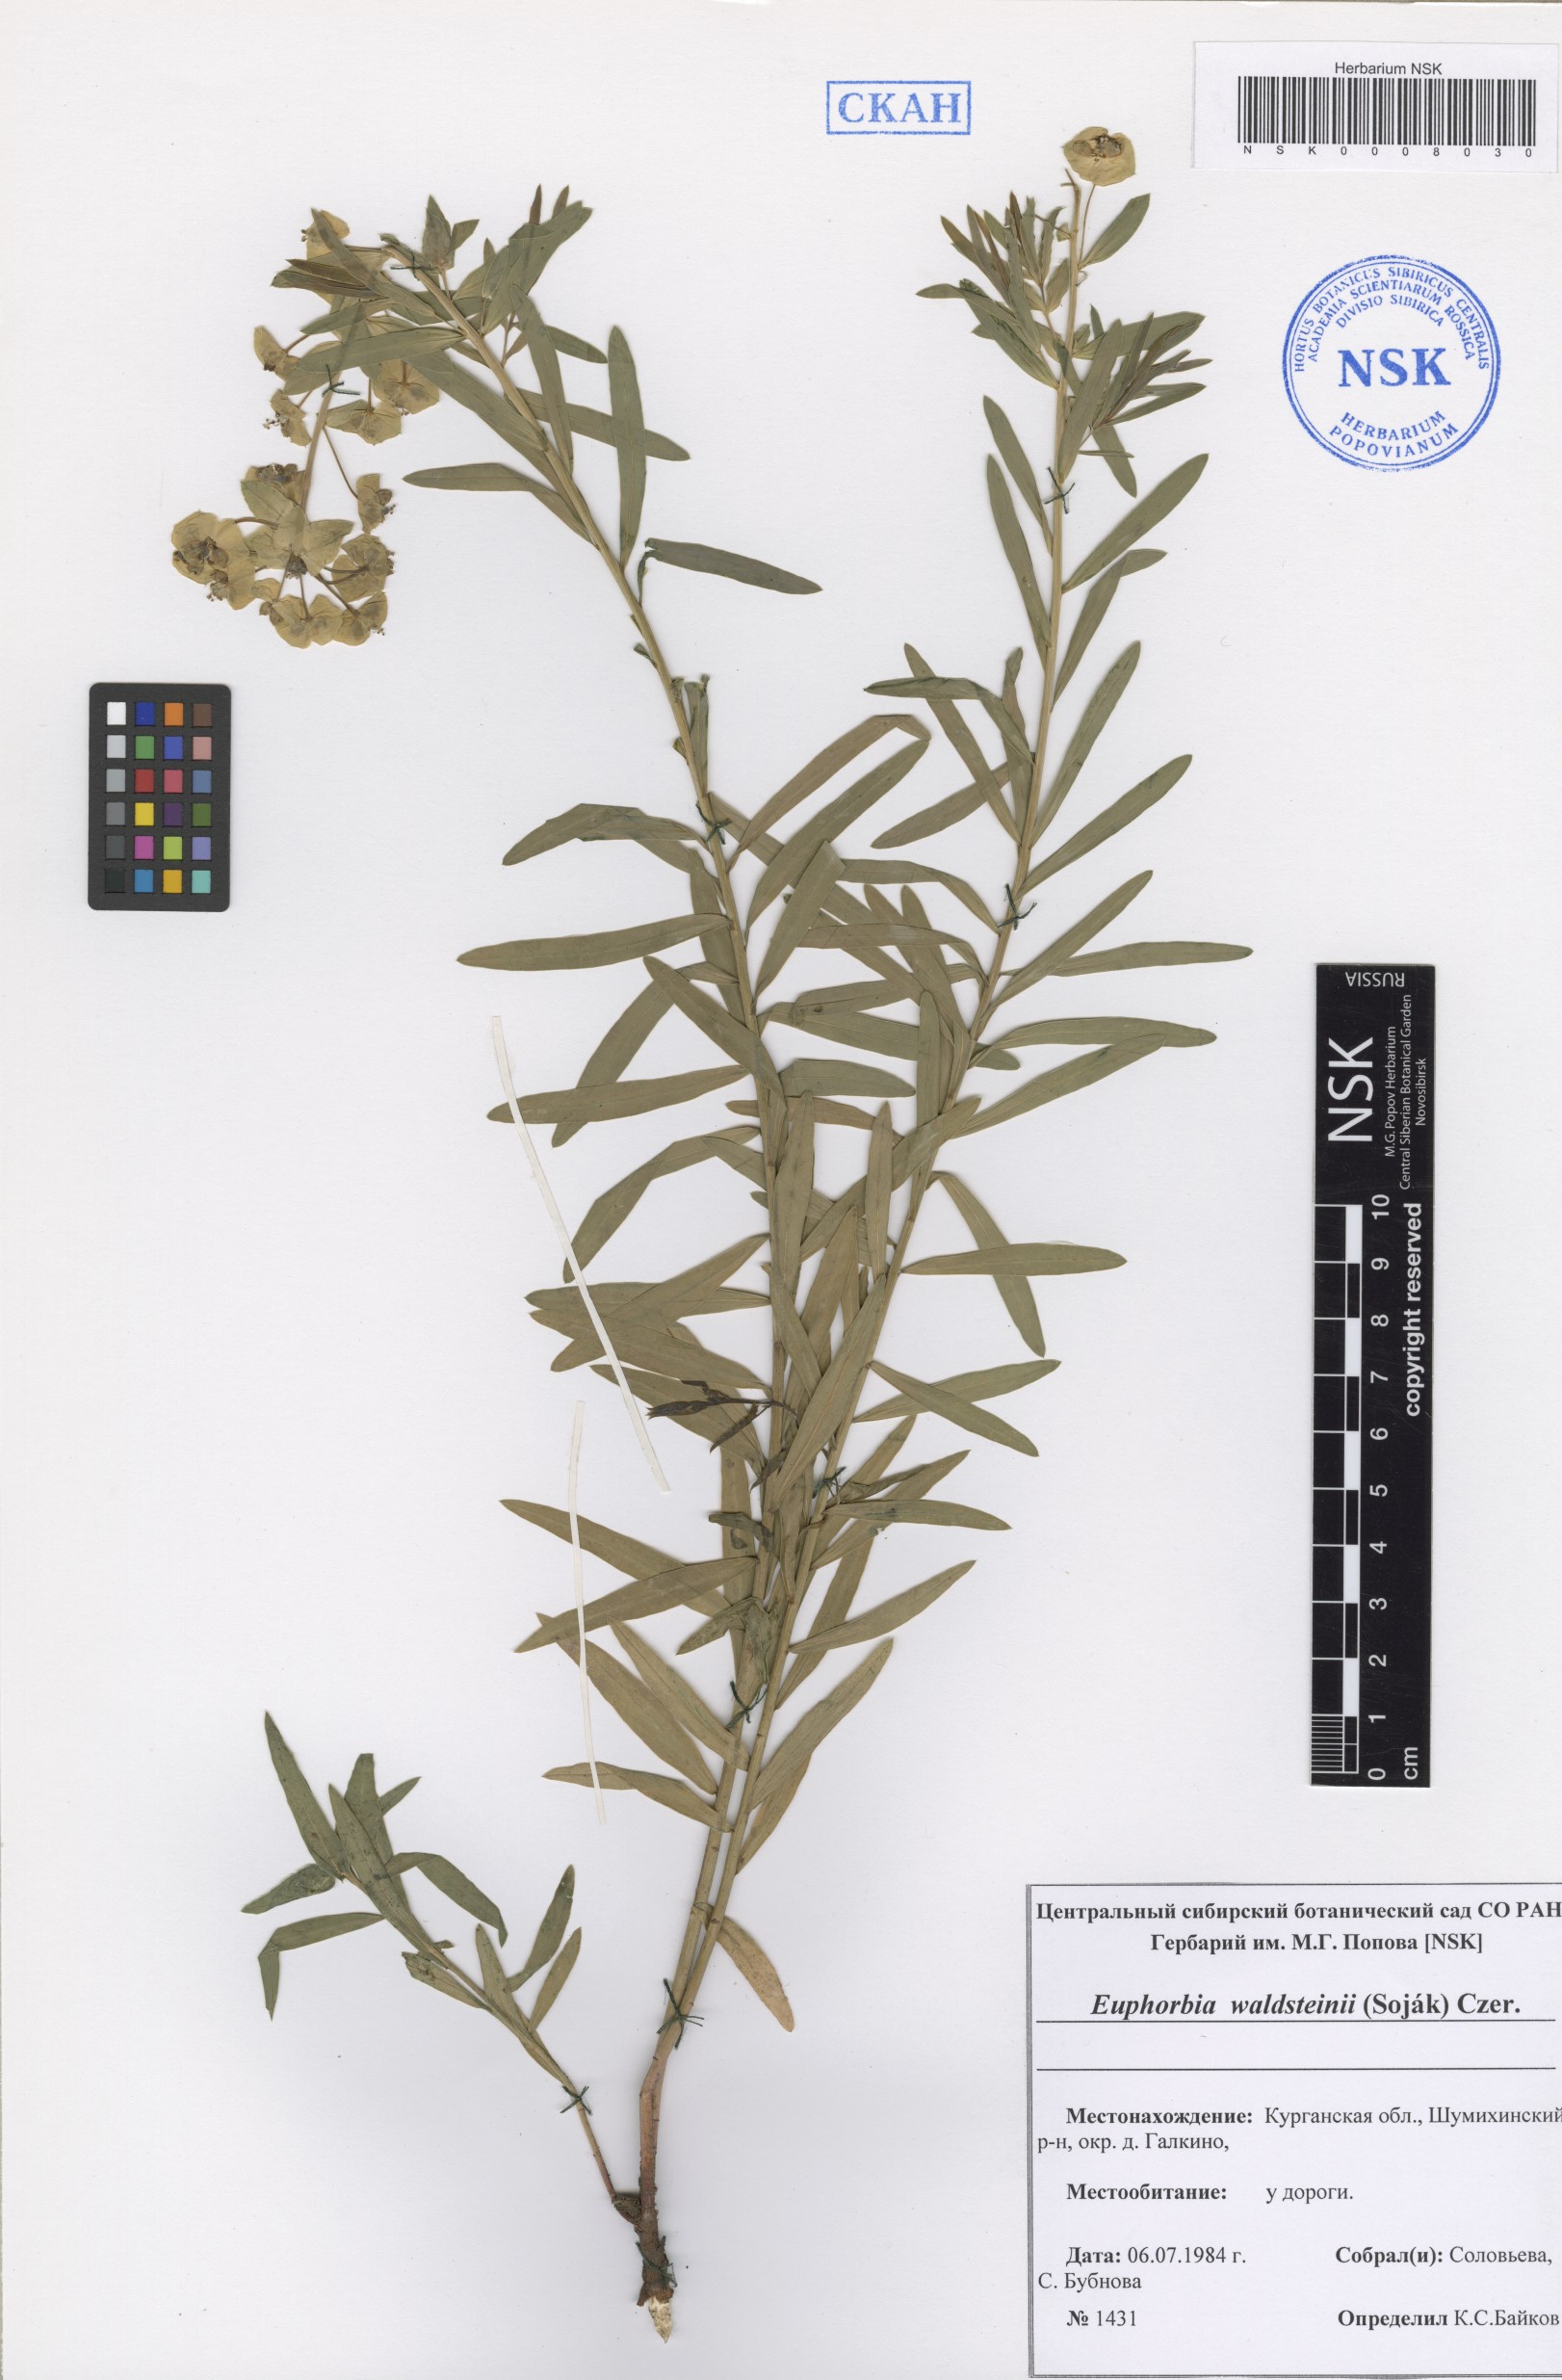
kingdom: Plantae
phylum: Tracheophyta
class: Magnoliopsida
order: Malpighiales
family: Euphorbiaceae
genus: Euphorbia
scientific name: Euphorbia virgata
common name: Leafy spurge
